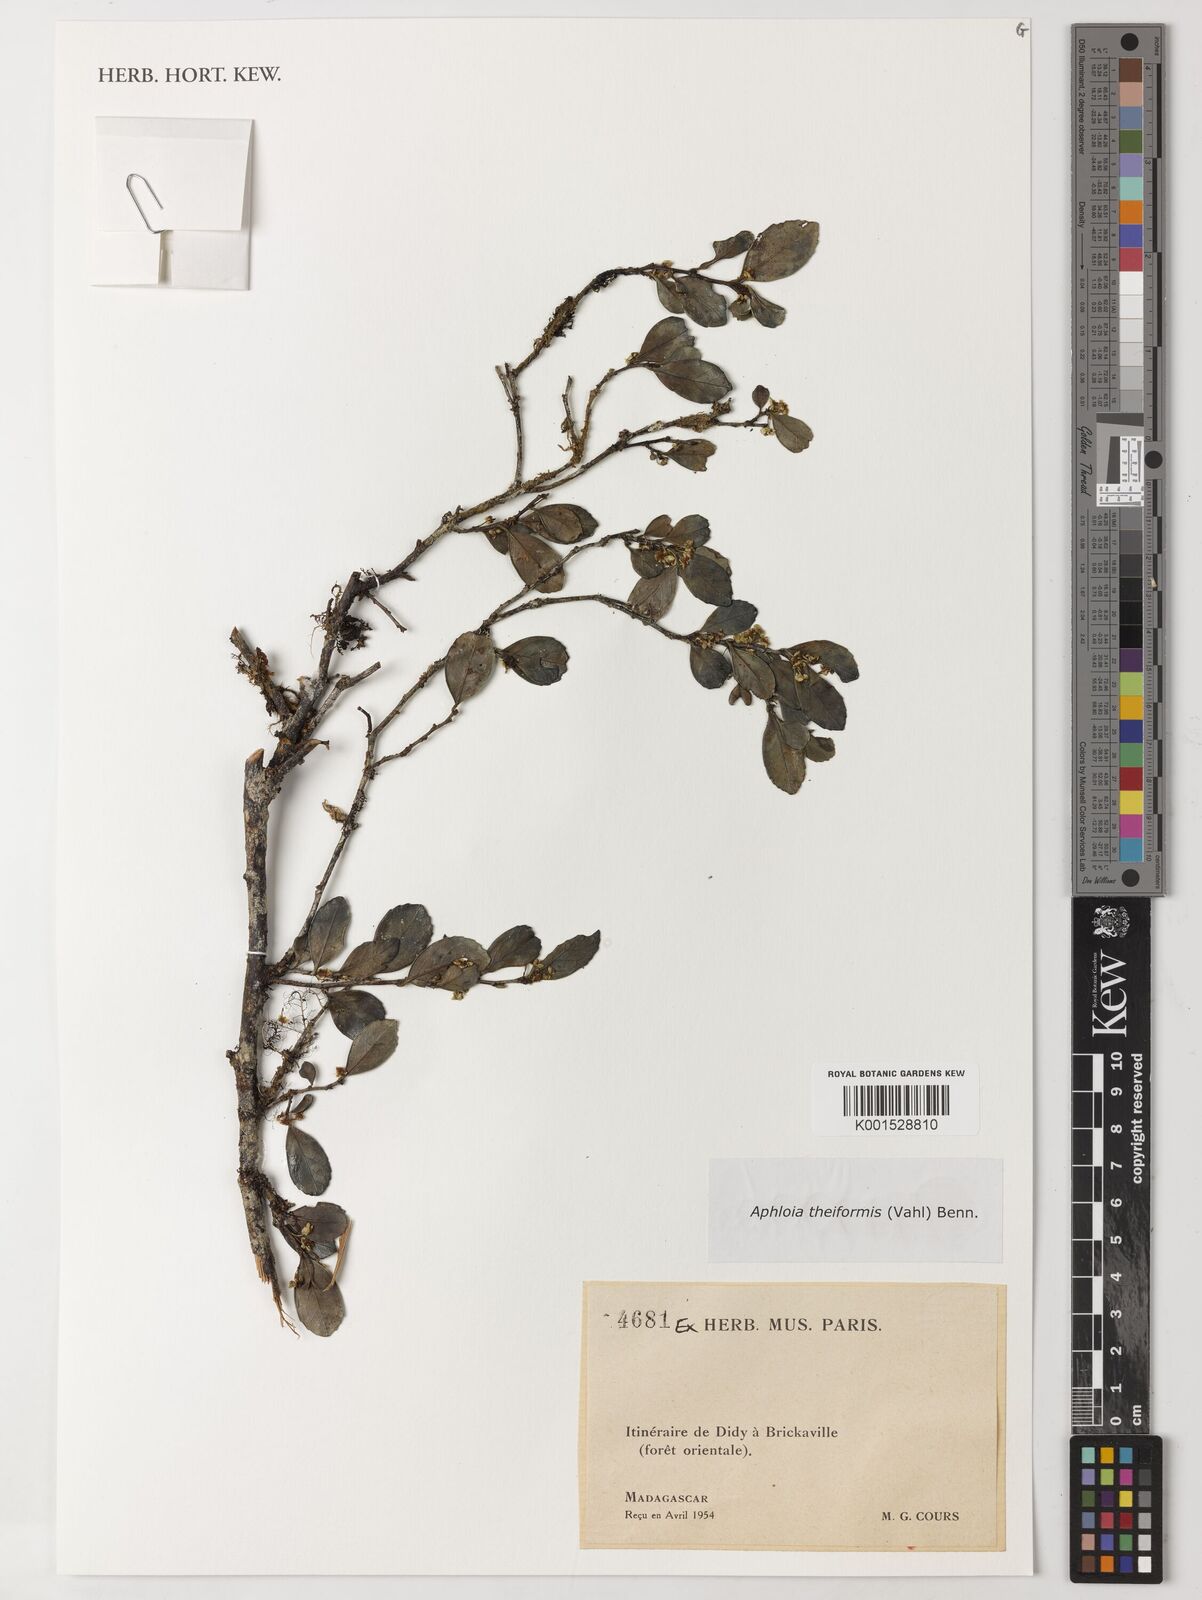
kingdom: Plantae
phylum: Tracheophyta
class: Magnoliopsida
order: Crossosomatales
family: Aphloiaceae
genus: Aphloia
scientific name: Aphloia theiformis
